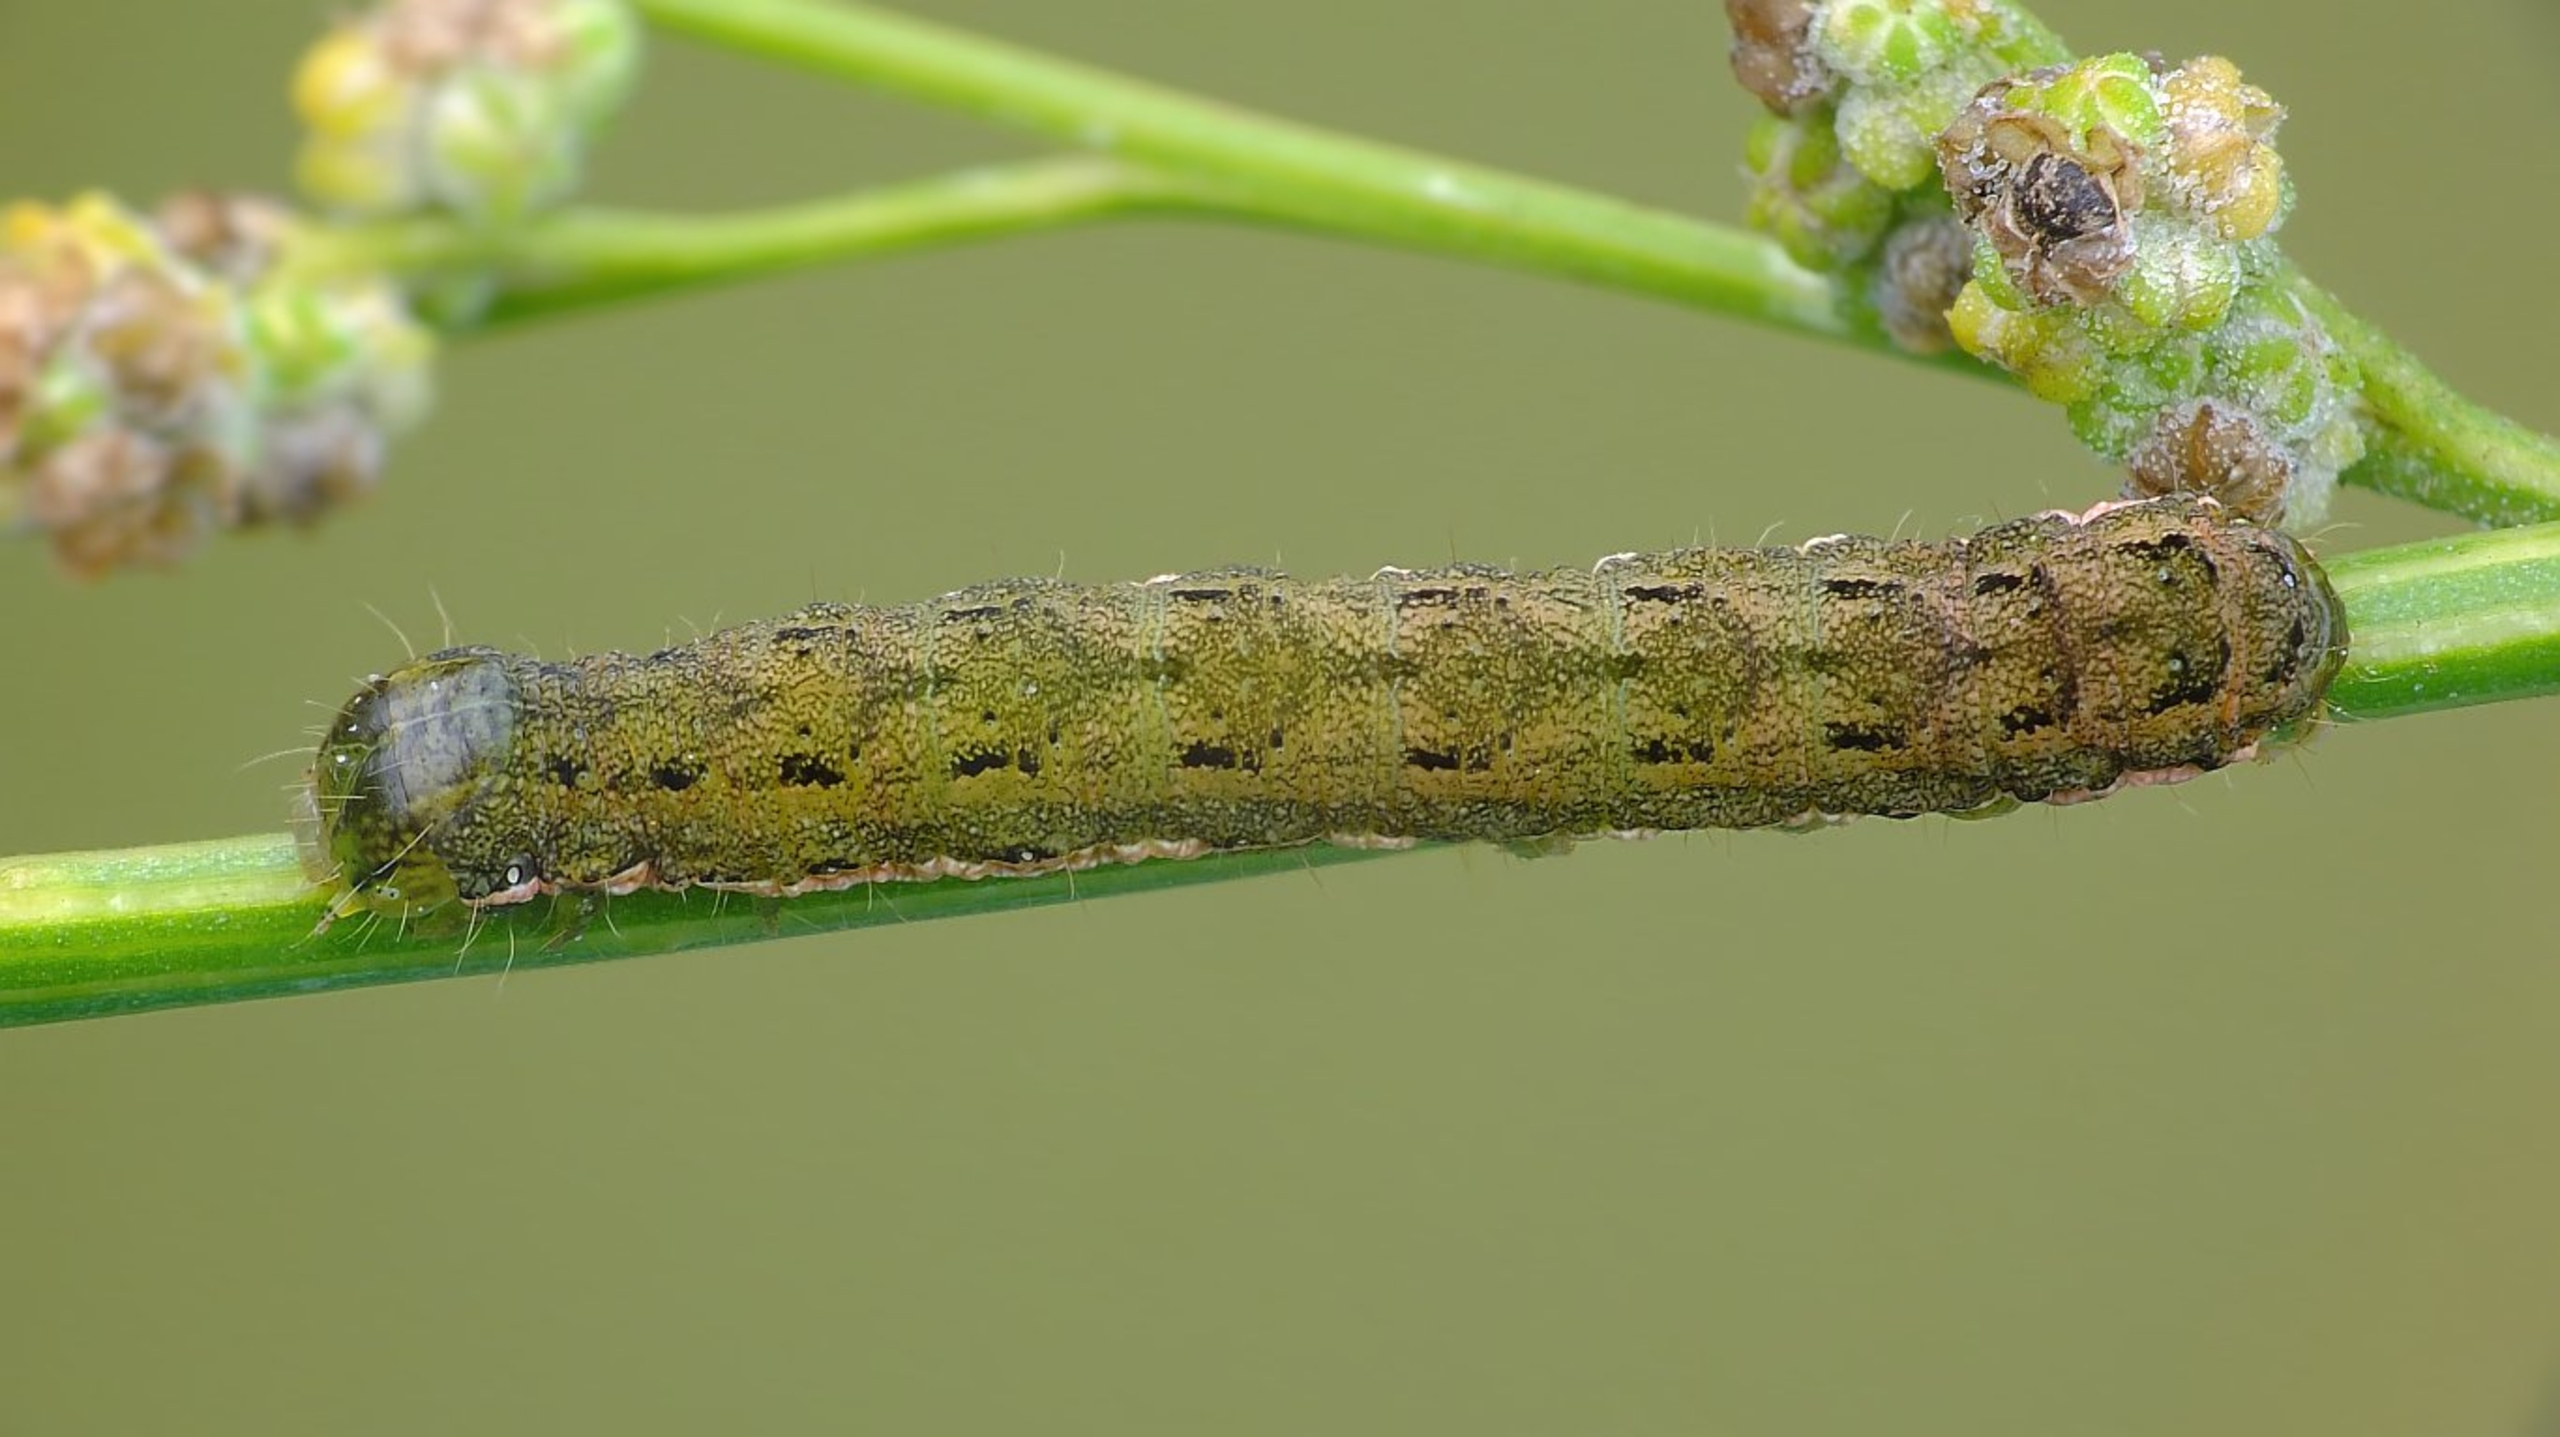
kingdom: Animalia
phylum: Arthropoda
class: Insecta
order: Lepidoptera
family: Noctuidae
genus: Anarta
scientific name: Anarta trifolii
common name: Bedeugle
